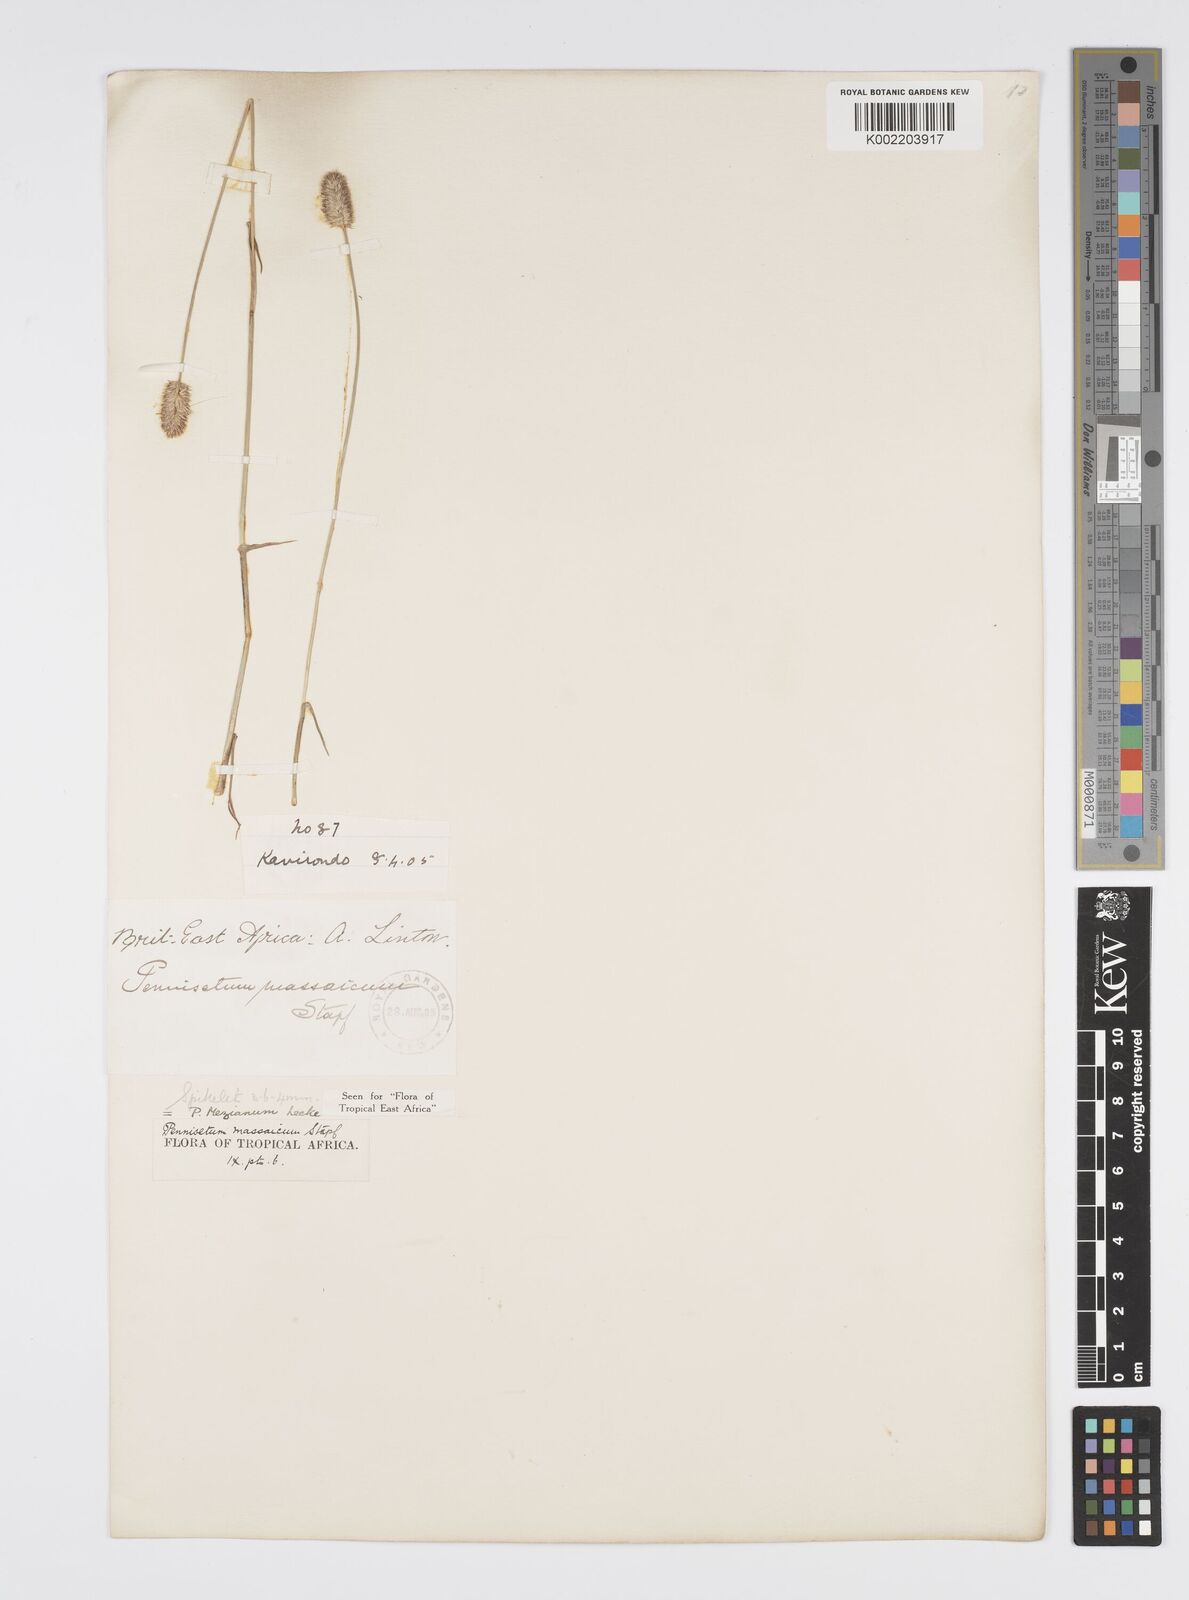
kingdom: Plantae
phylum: Tracheophyta
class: Liliopsida
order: Poales
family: Poaceae
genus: Cenchrus
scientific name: Cenchrus mezianus
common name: Bamboo grass
